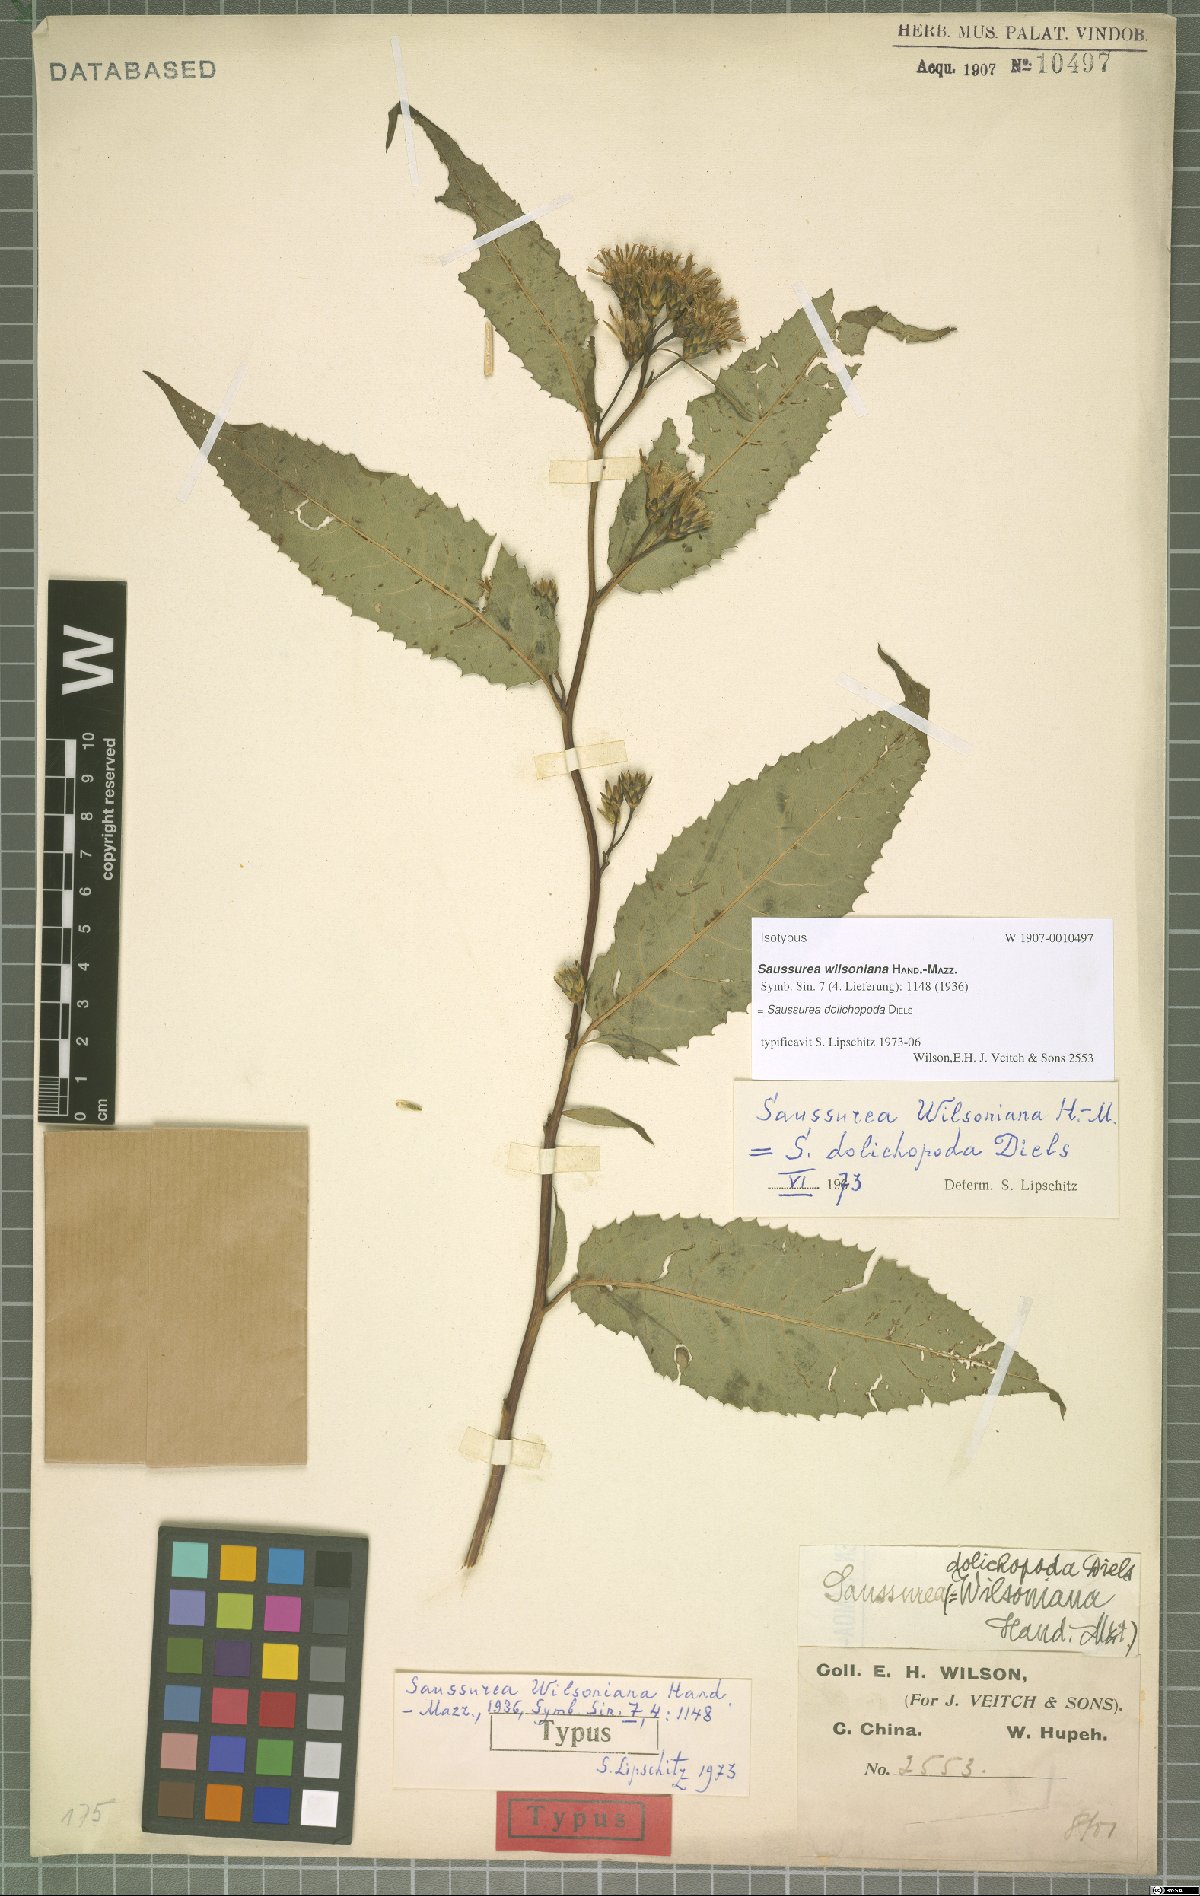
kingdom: Plantae
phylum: Tracheophyta
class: Magnoliopsida
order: Asterales
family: Asteraceae
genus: Saussurea
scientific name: Saussurea dolichopoda
